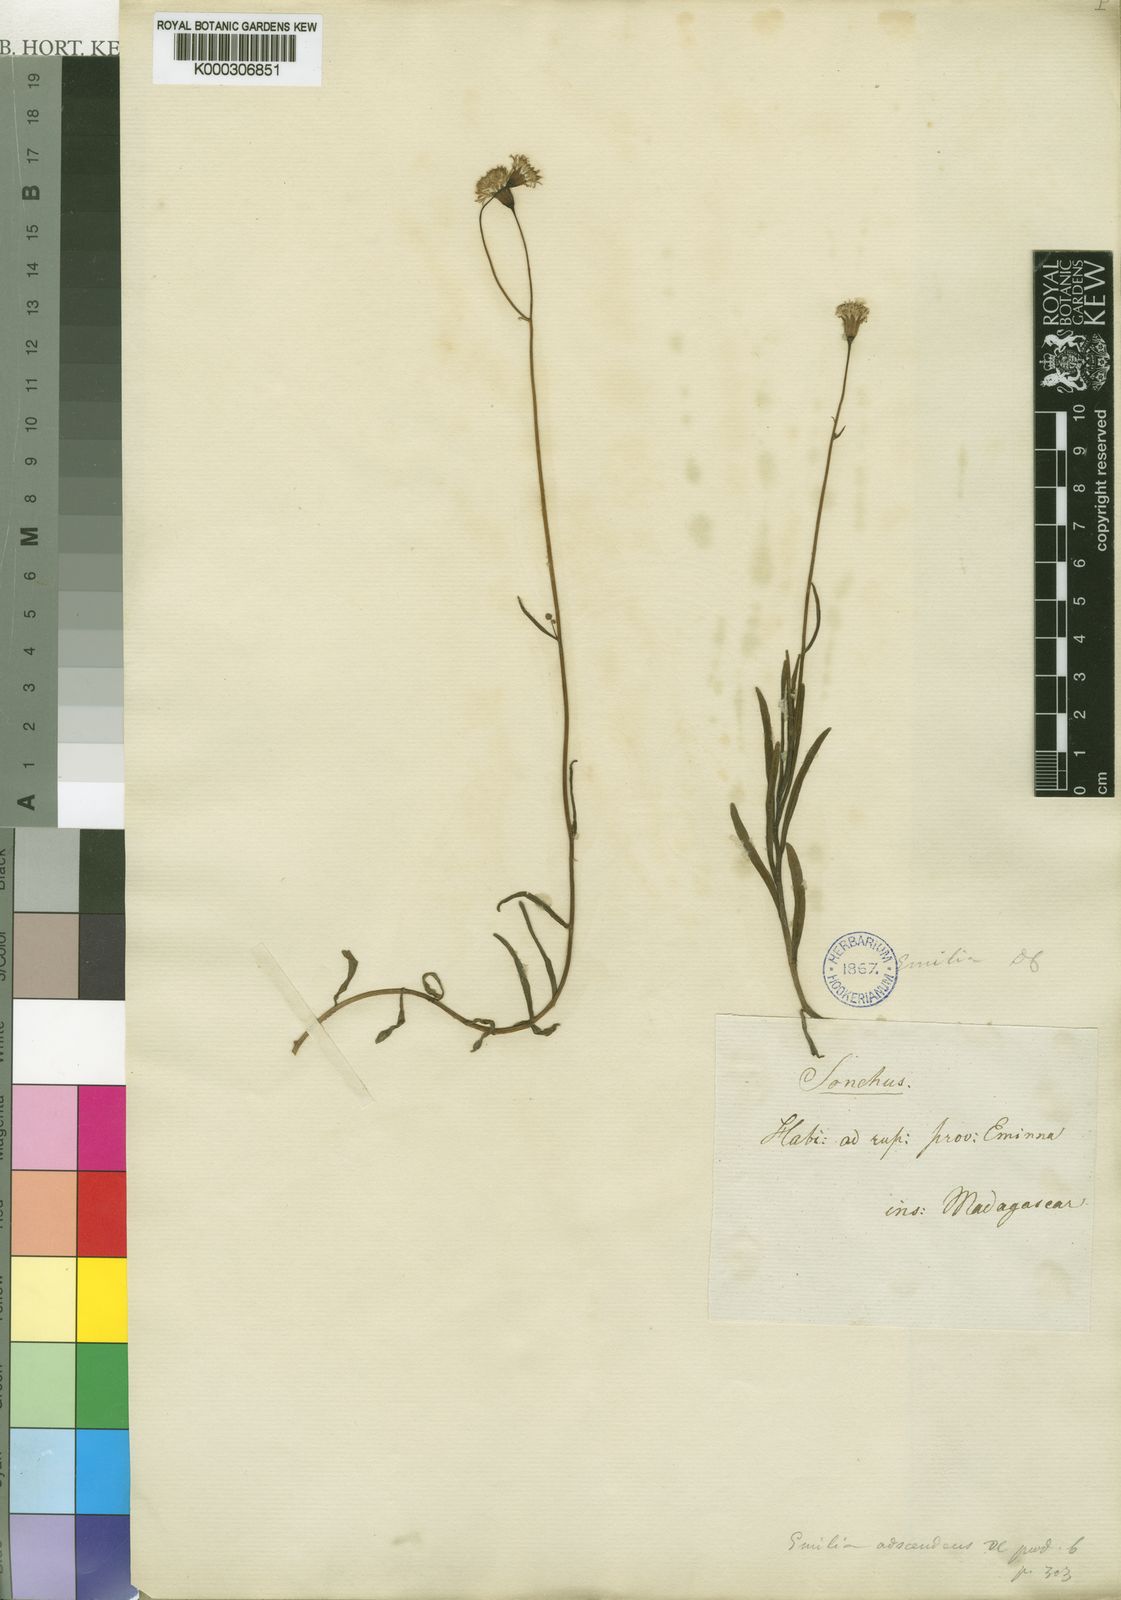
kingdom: Plantae
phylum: Tracheophyta
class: Magnoliopsida
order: Asterales
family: Asteraceae
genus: Emilia
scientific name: Emilia adscendens
